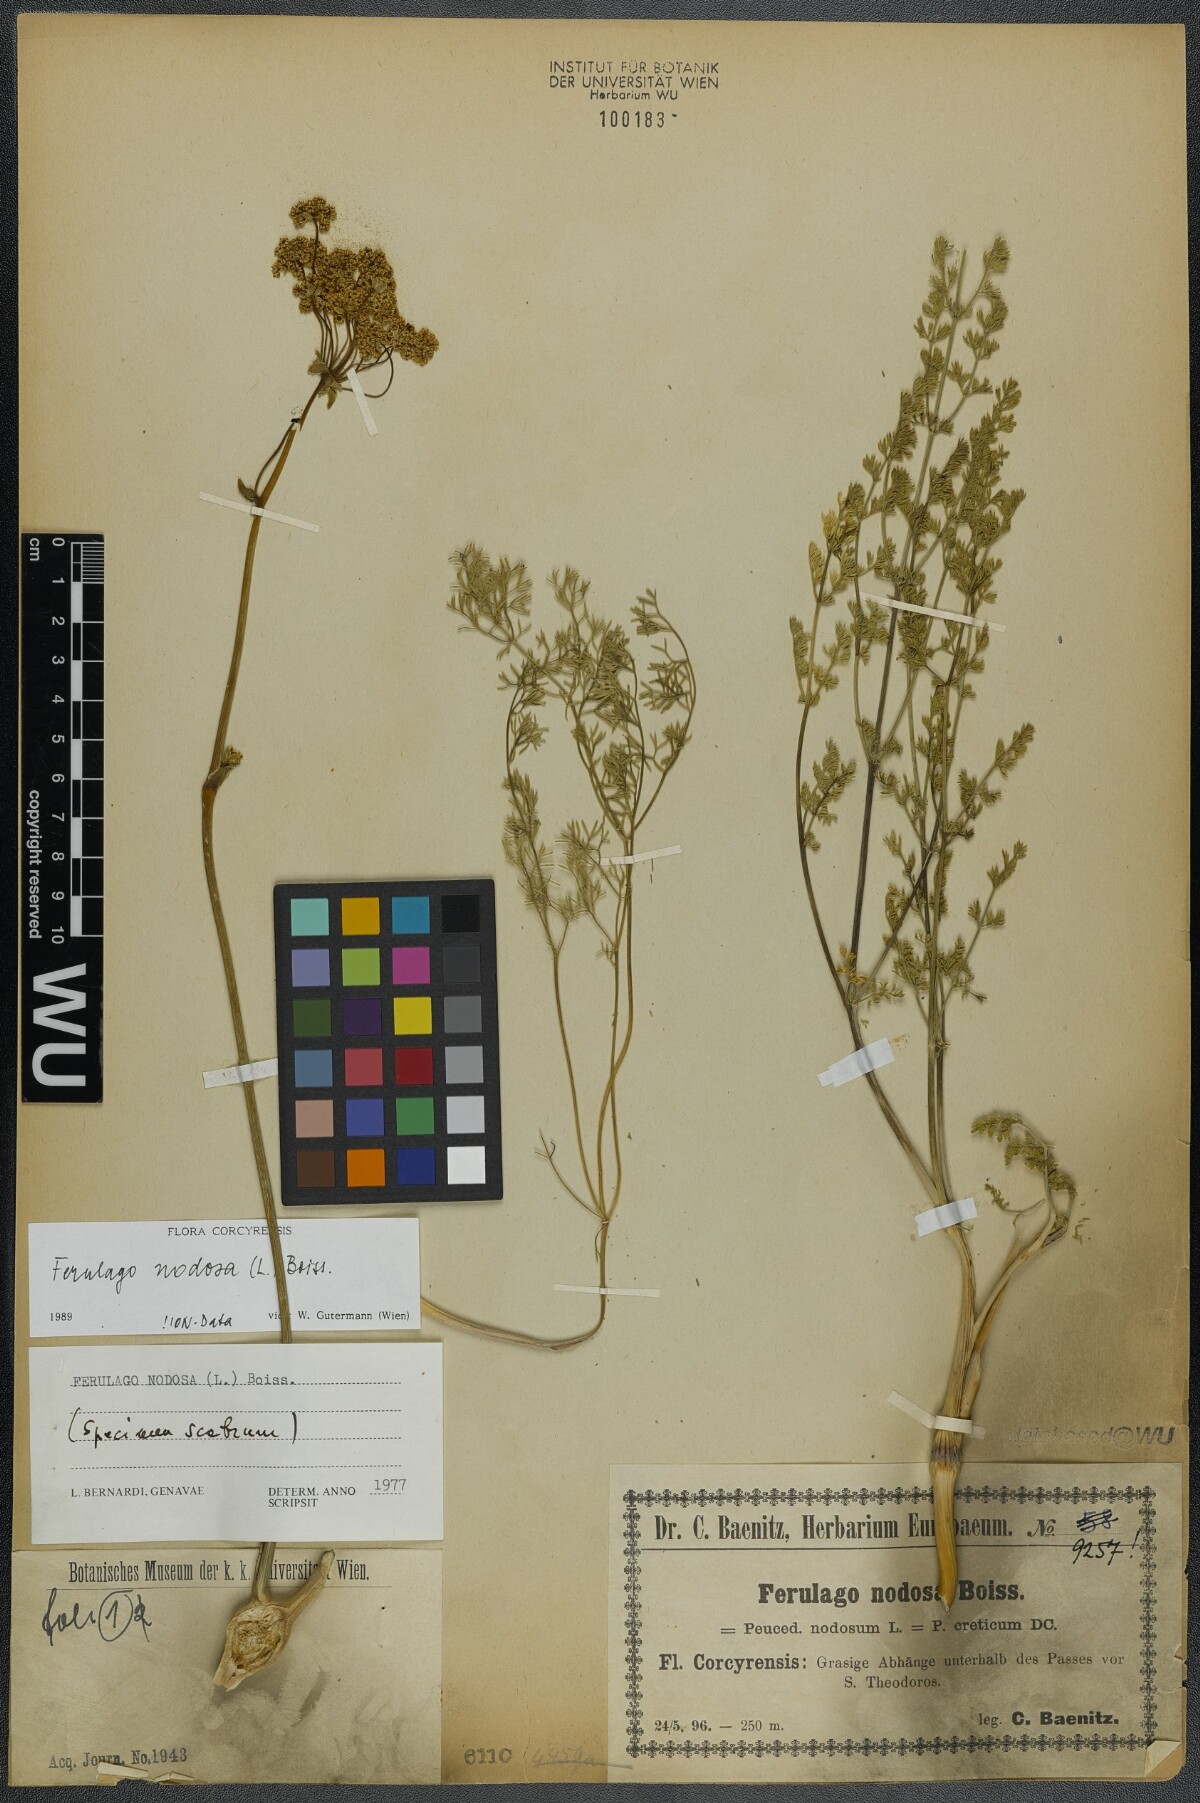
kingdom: Plantae
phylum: Tracheophyta
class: Magnoliopsida
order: Apiales
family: Apiaceae
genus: Ferulago
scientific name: Ferulago nodosa
